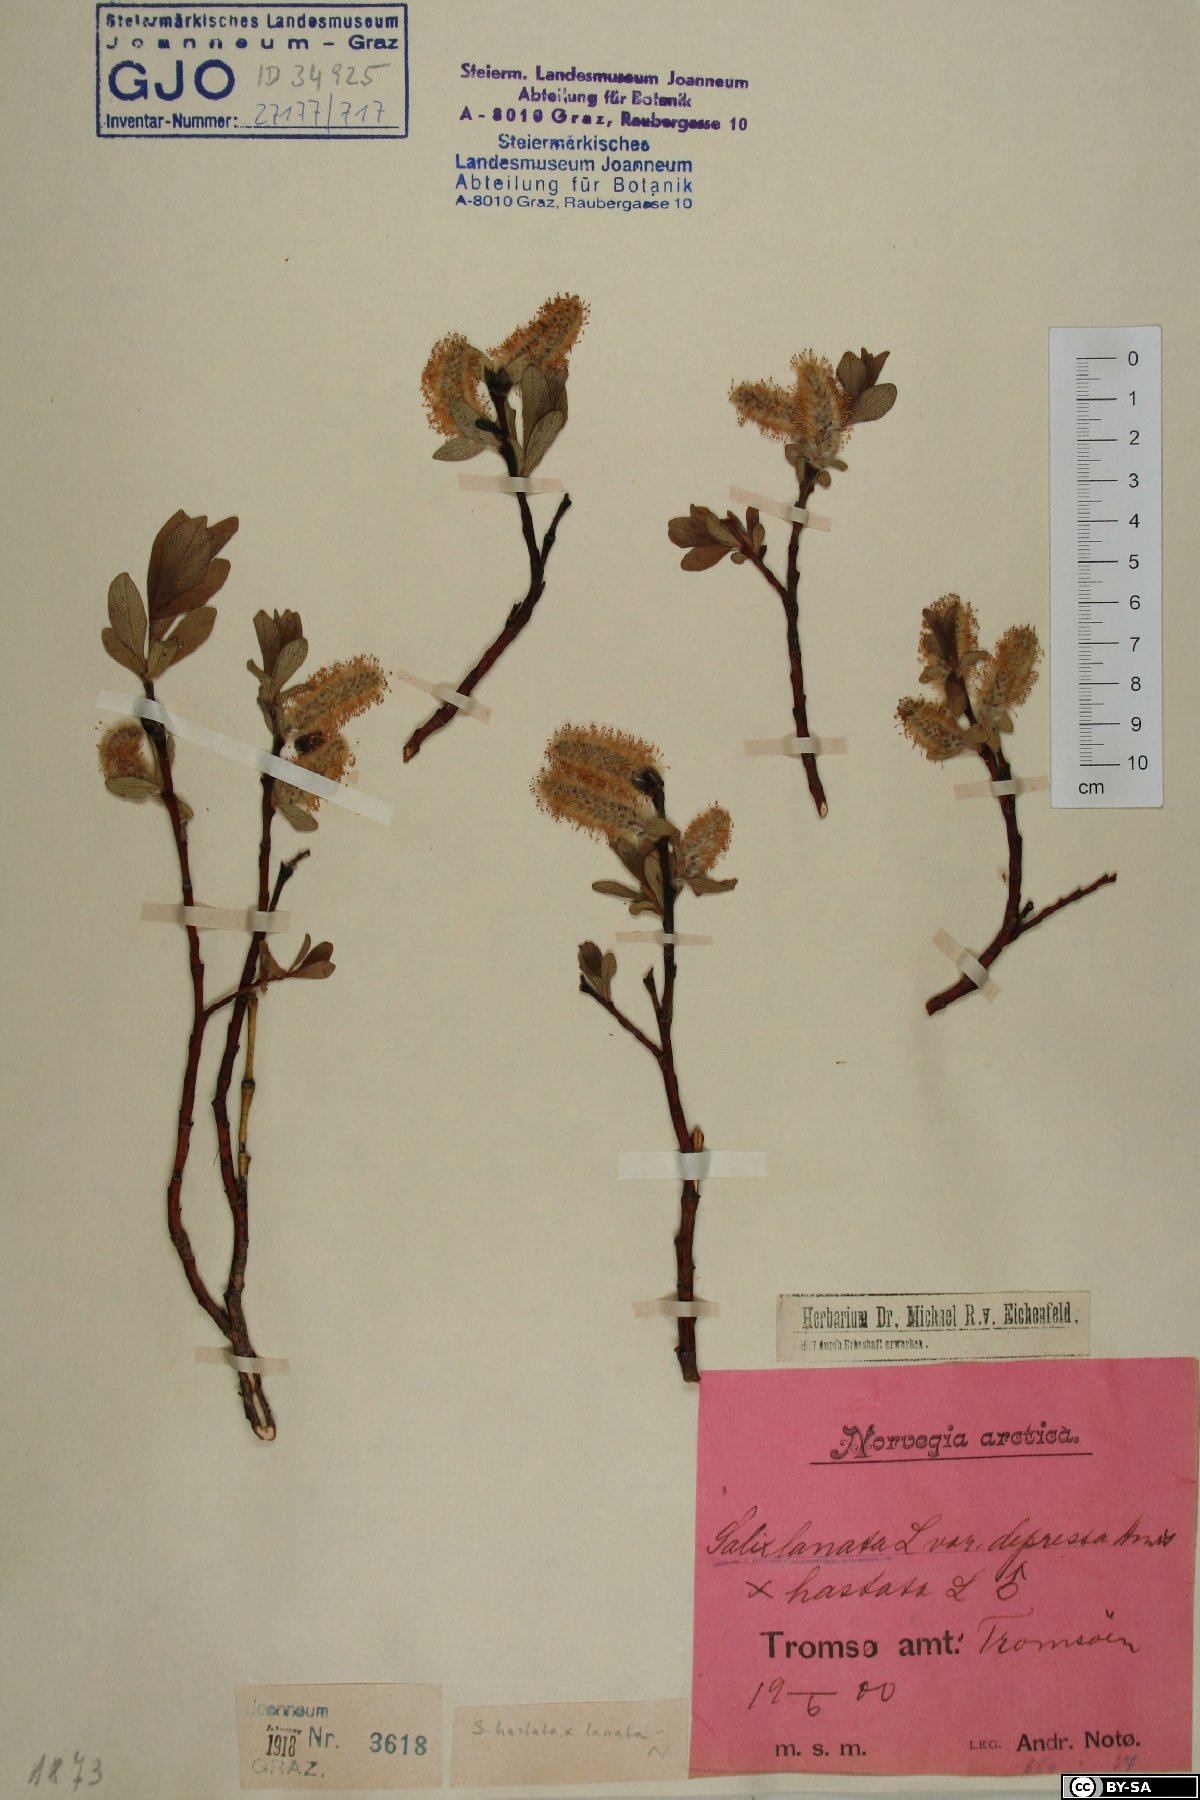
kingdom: Plantae
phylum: Tracheophyta
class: Magnoliopsida
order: Malpighiales
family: Salicaceae
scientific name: Salicaceae
